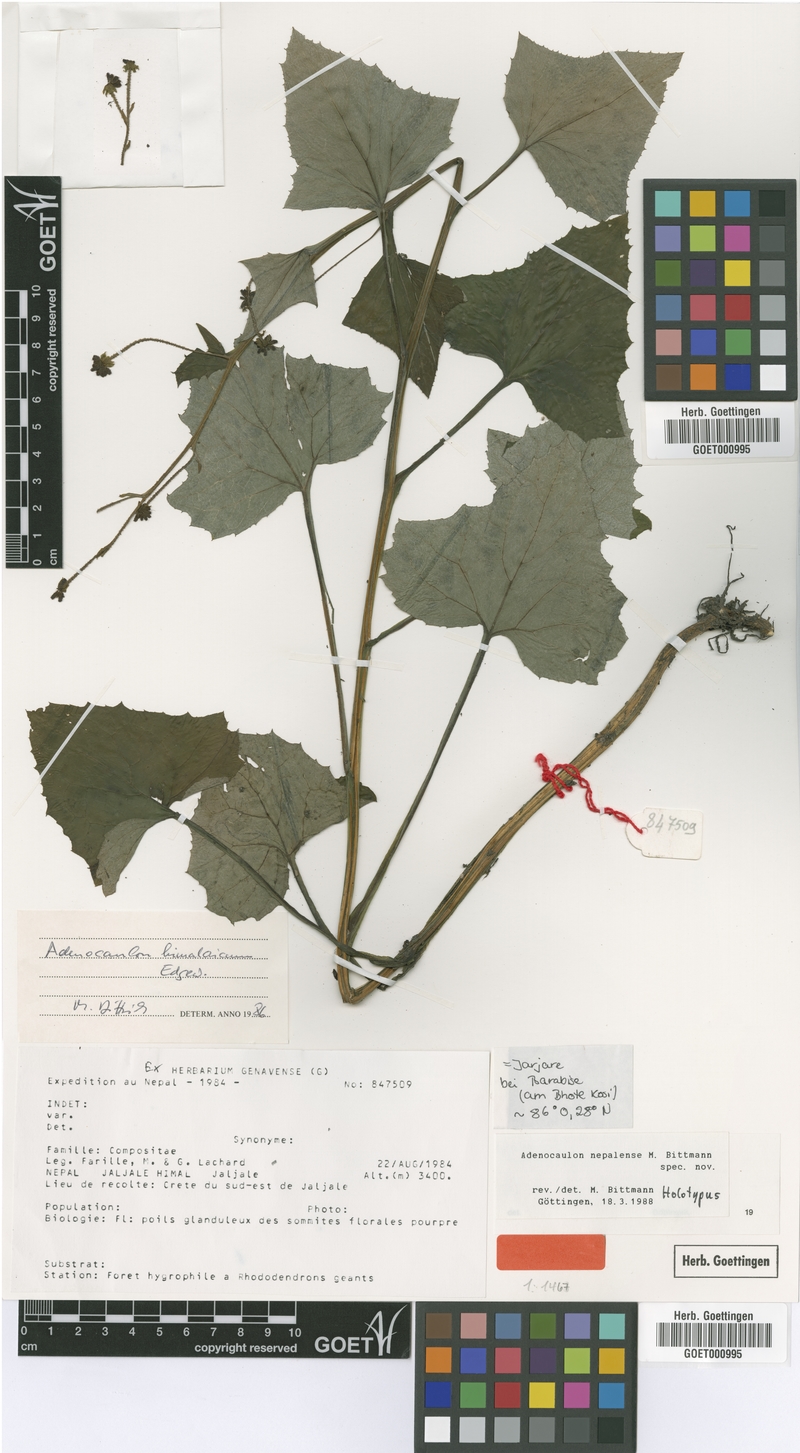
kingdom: Plantae
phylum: Tracheophyta
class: Magnoliopsida
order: Asterales
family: Asteraceae
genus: Adenocaulon
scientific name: Adenocaulon nepalense
